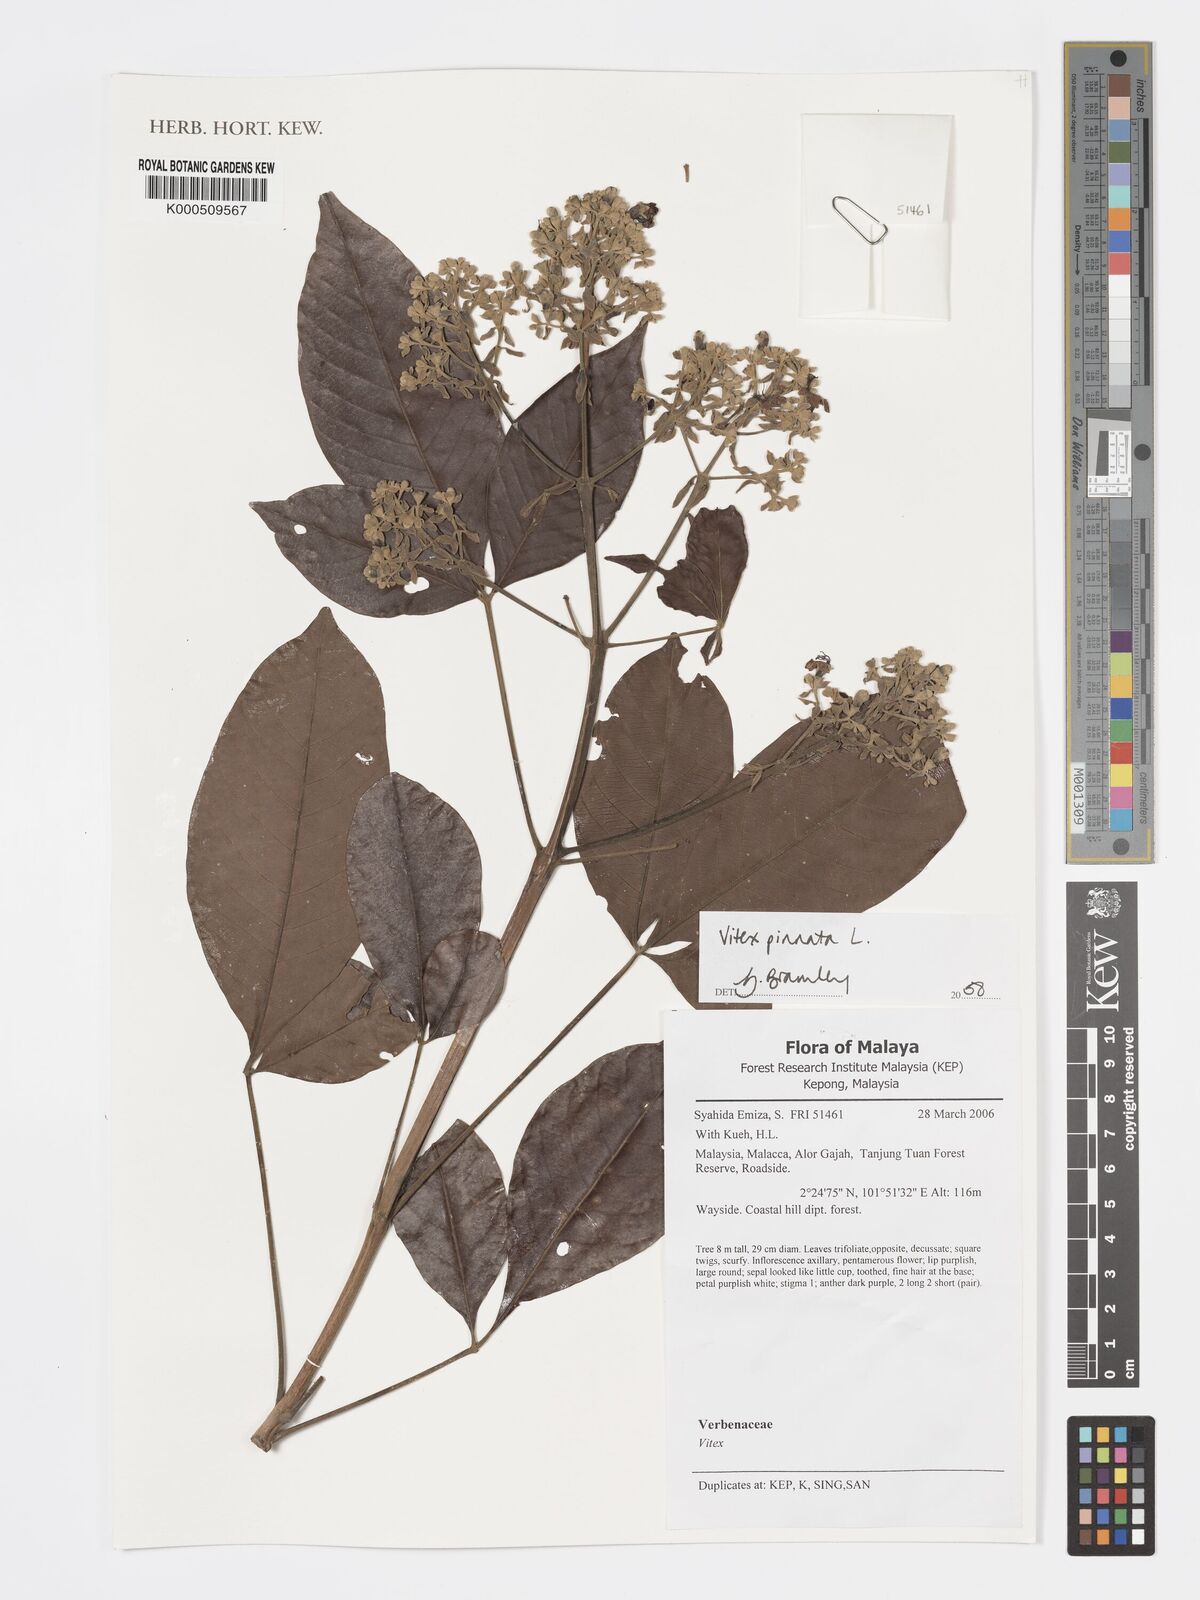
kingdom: Plantae
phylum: Tracheophyta
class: Magnoliopsida
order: Lamiales
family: Lamiaceae
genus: Vitex
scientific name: Vitex pinnata
